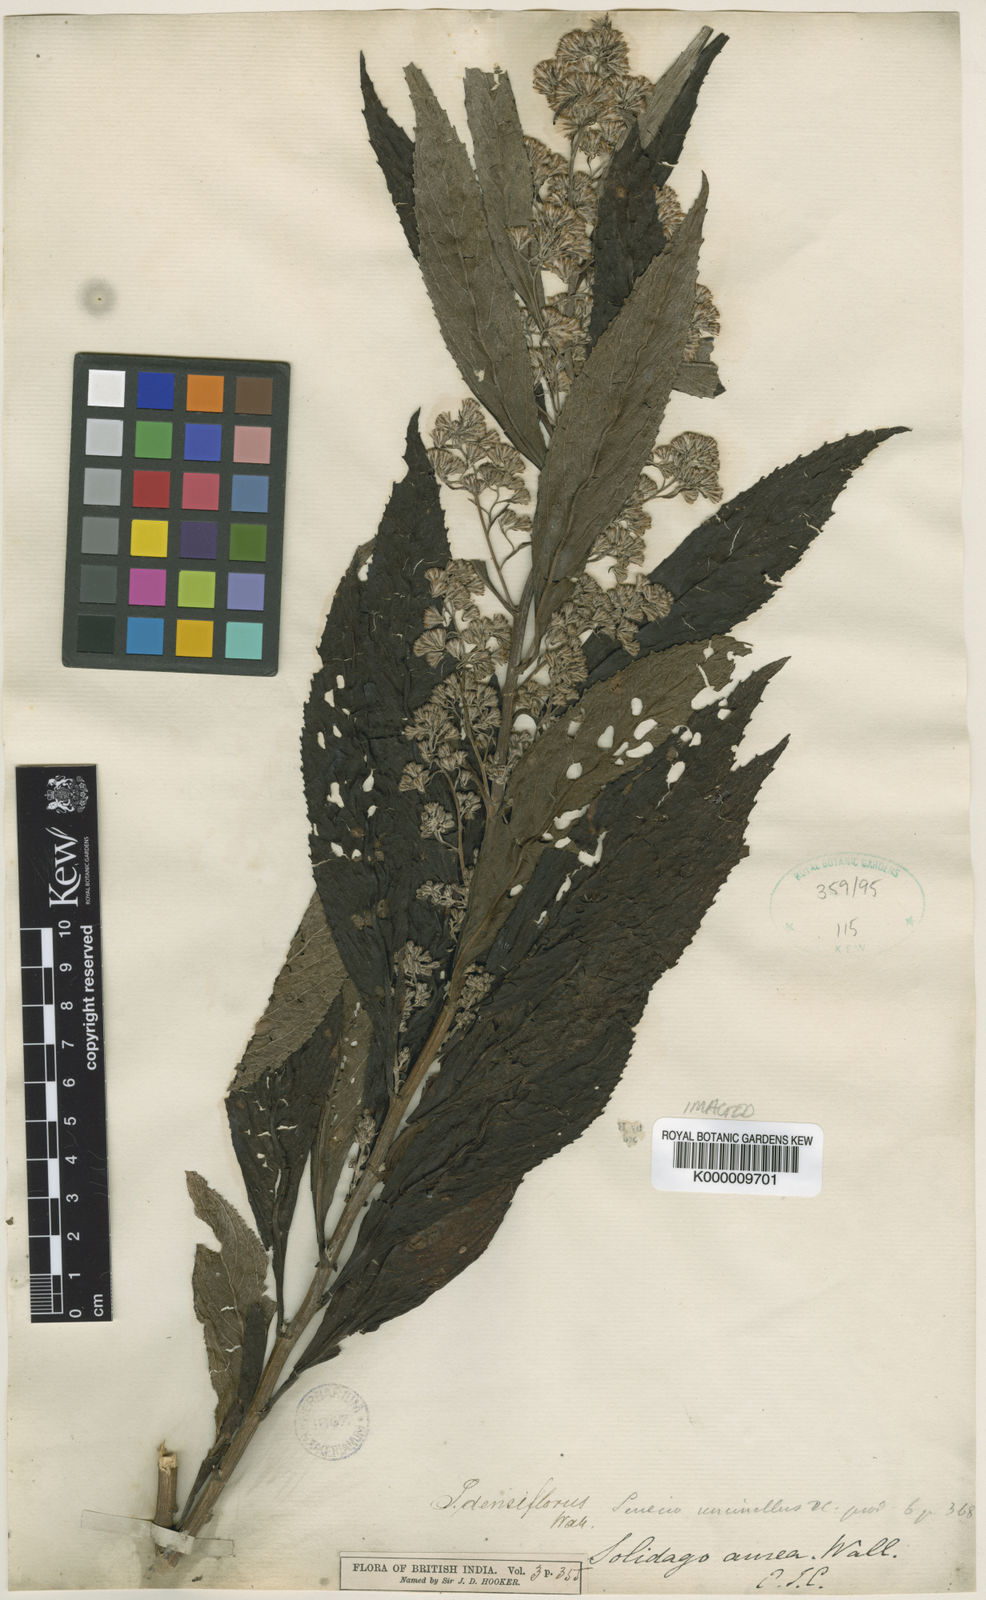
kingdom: Plantae
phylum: Tracheophyta
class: Magnoliopsida
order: Asterales
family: Asteraceae
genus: Synotis
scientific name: Synotis cappa
